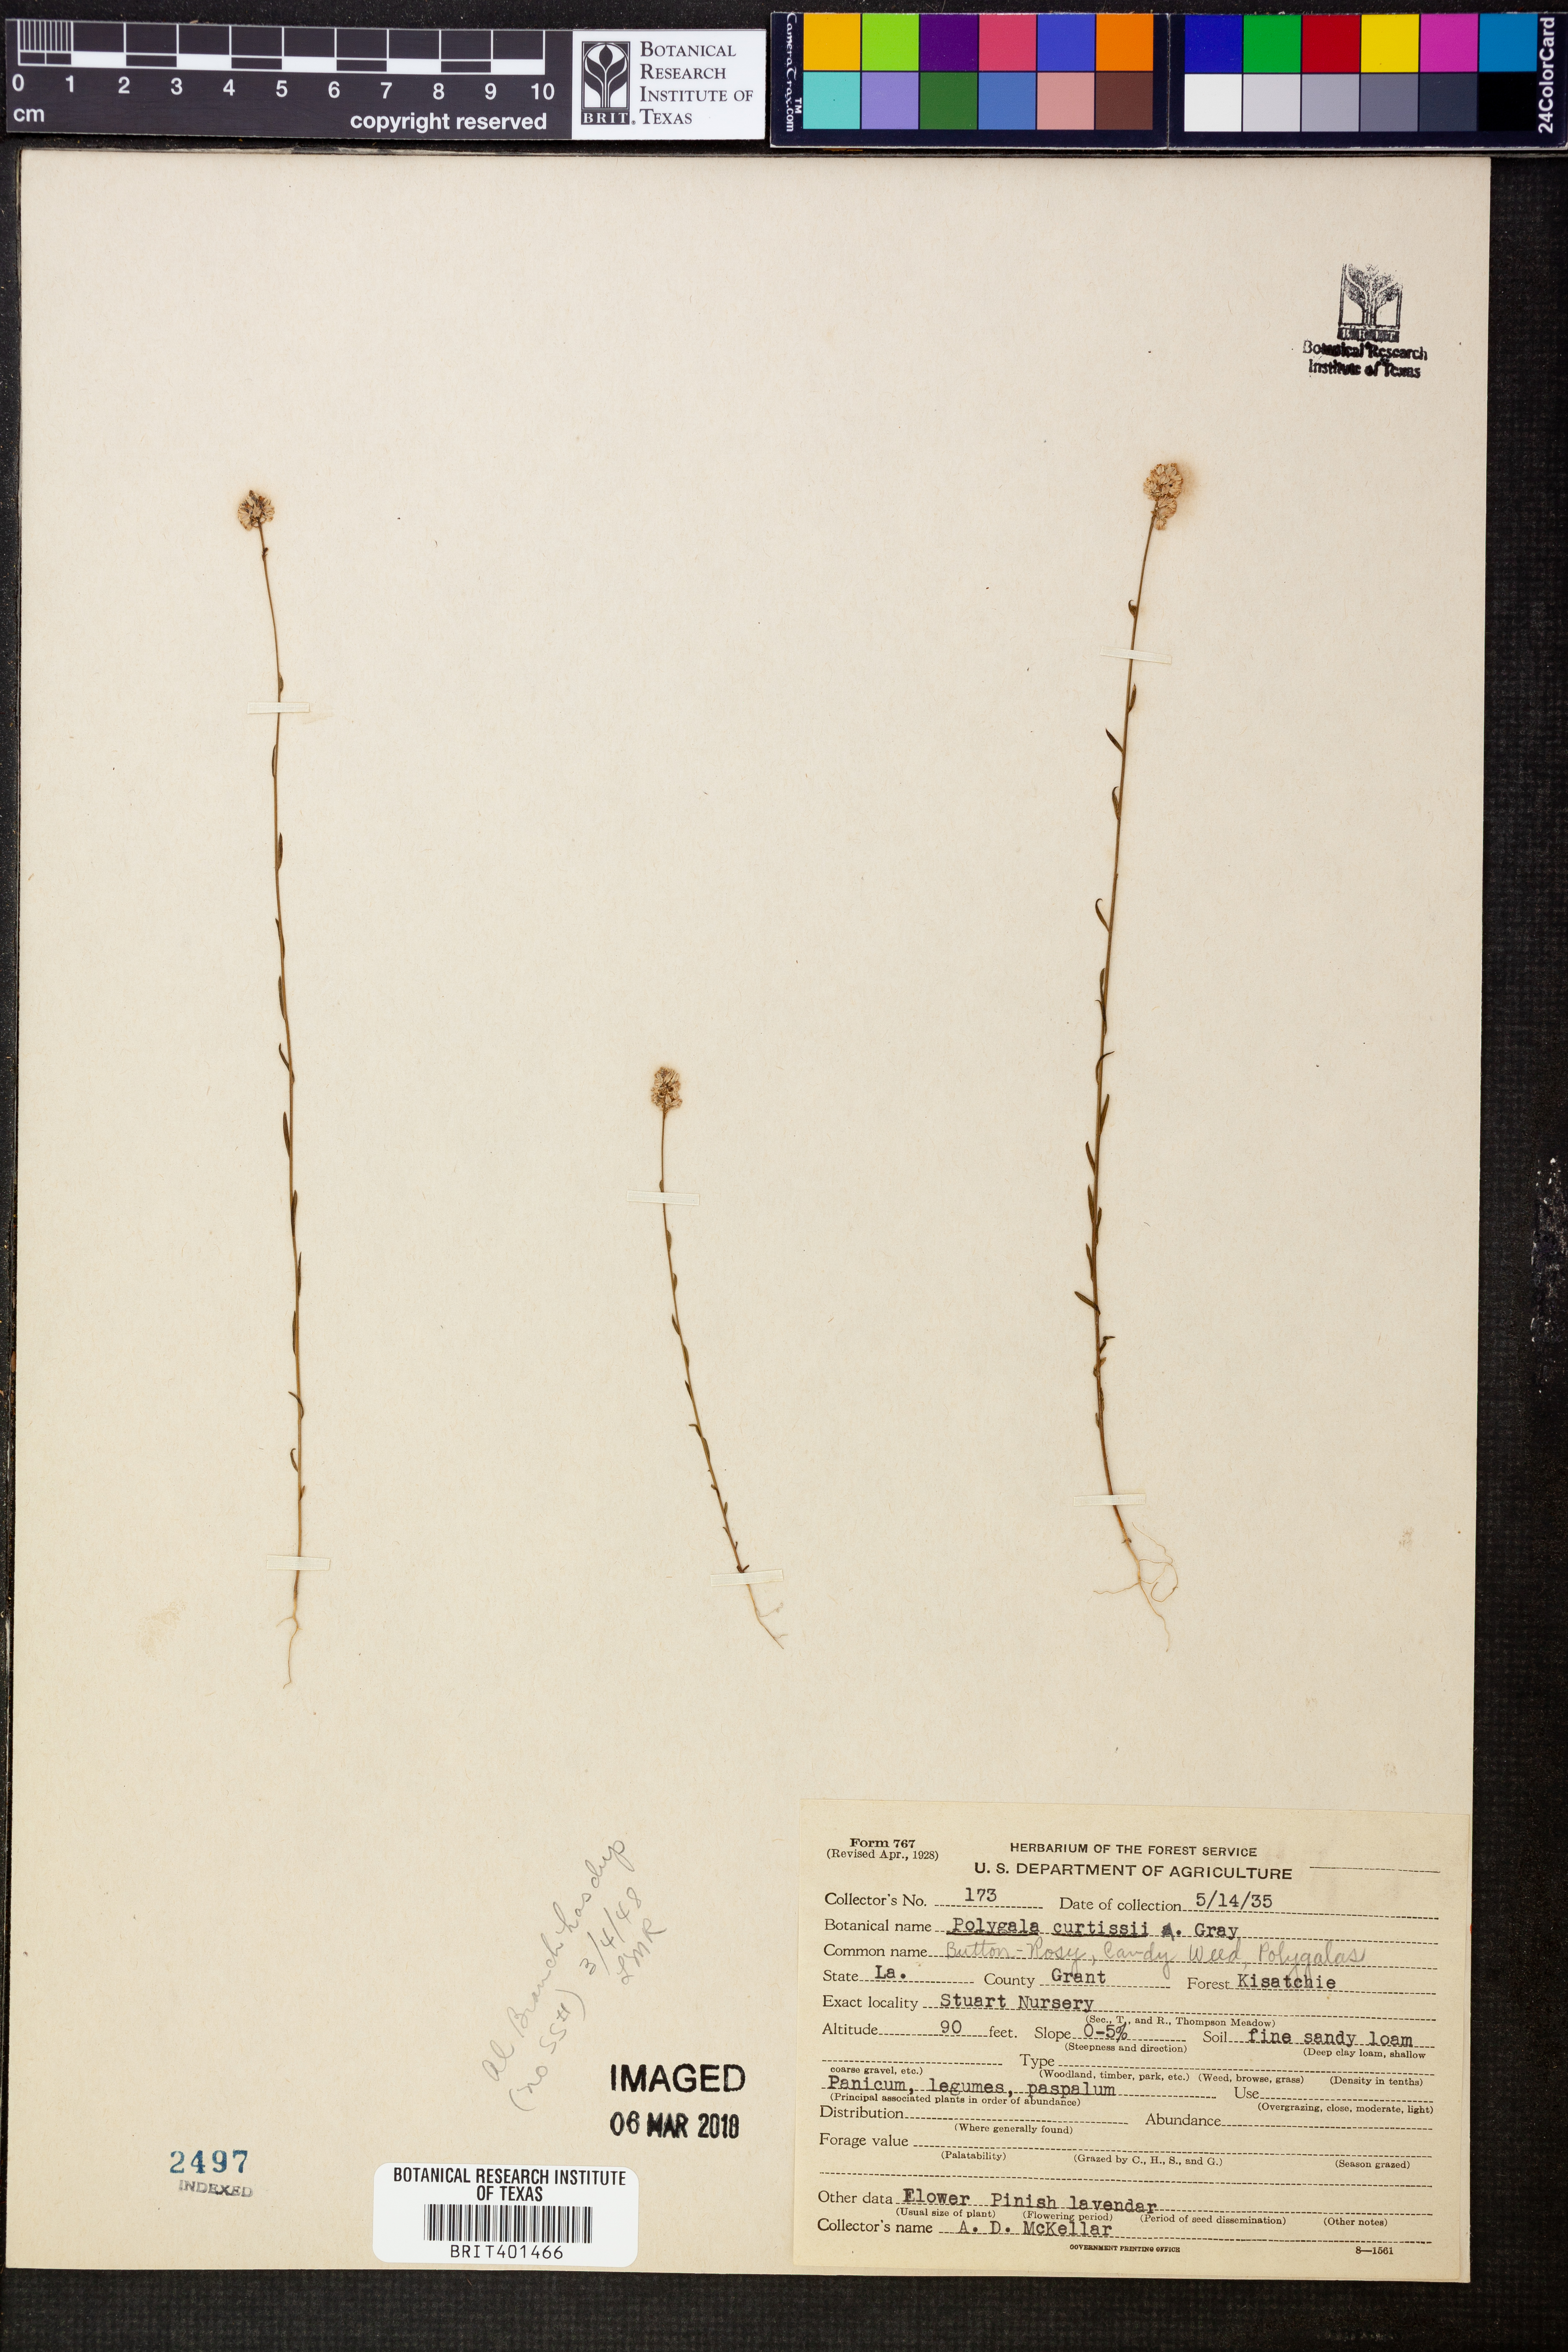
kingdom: Plantae
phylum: Tracheophyta
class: Magnoliopsida
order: Fabales
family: Polygalaceae
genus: Polygala
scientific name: Polygala curtissii
